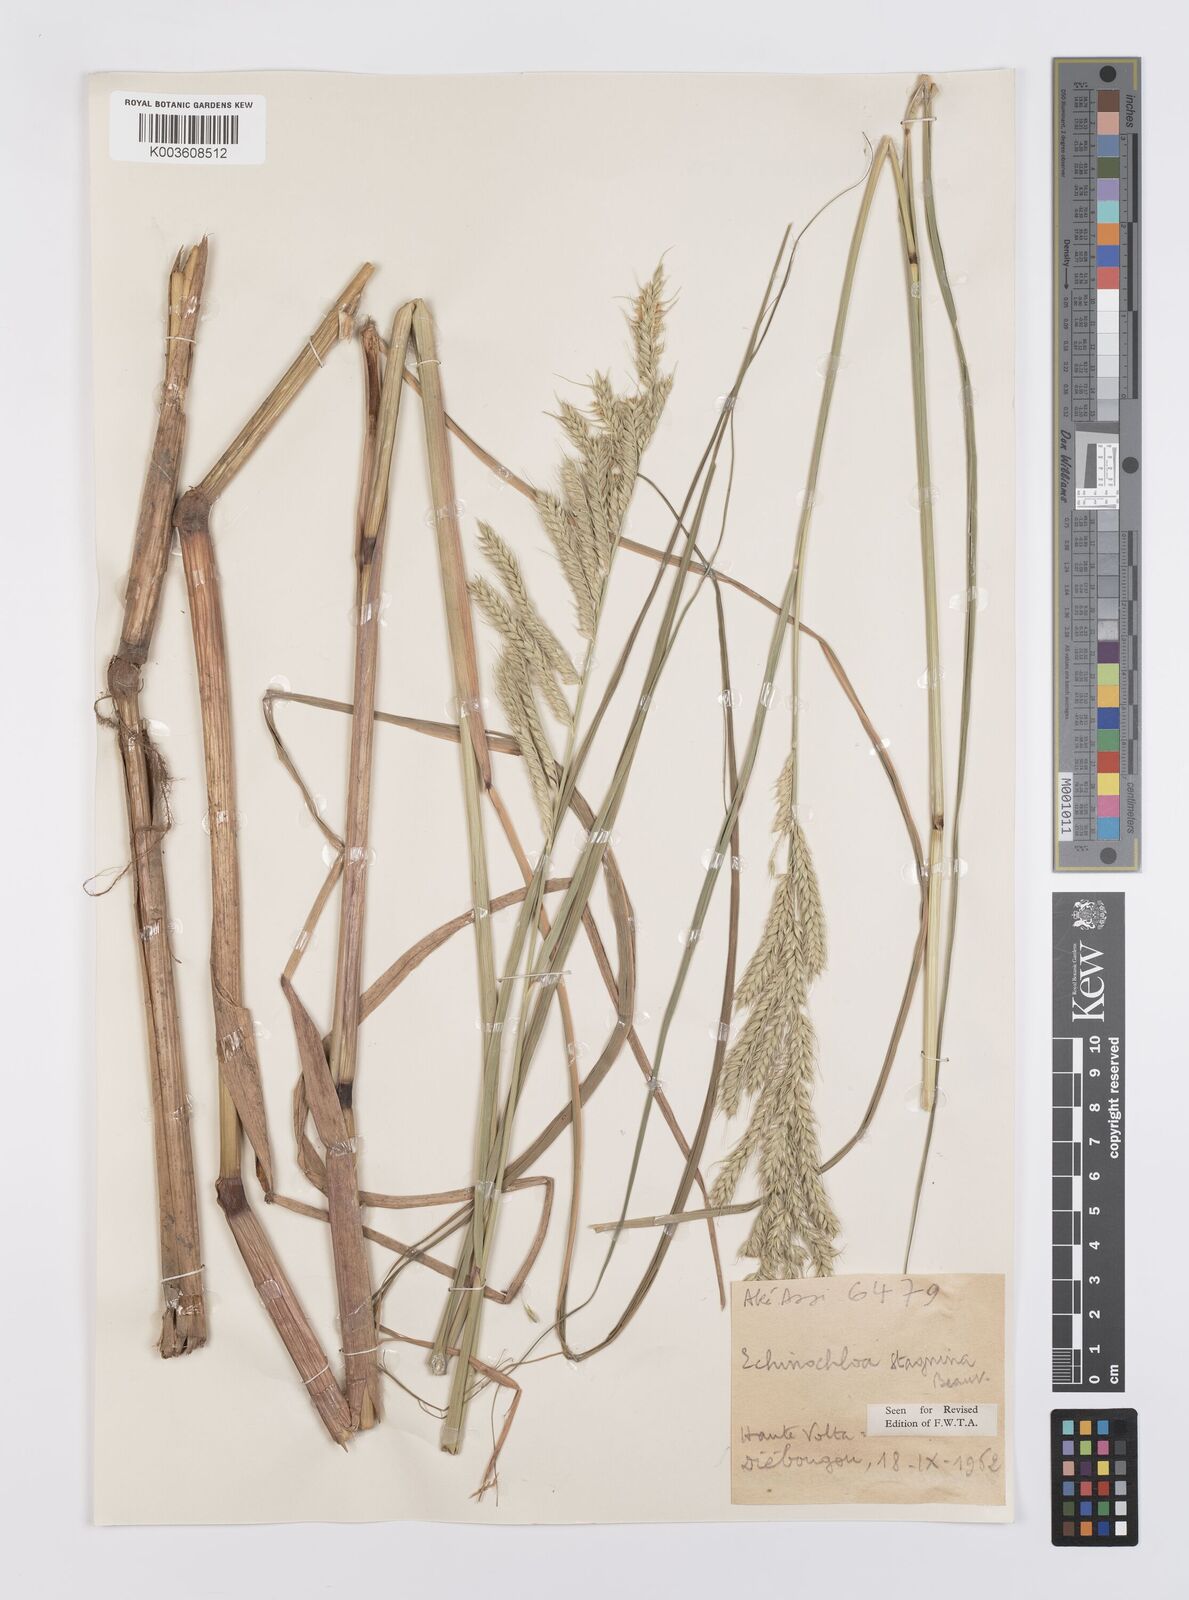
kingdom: Plantae
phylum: Tracheophyta
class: Liliopsida
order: Poales
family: Poaceae
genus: Echinochloa
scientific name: Echinochloa stagnina
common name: Burgu grass
